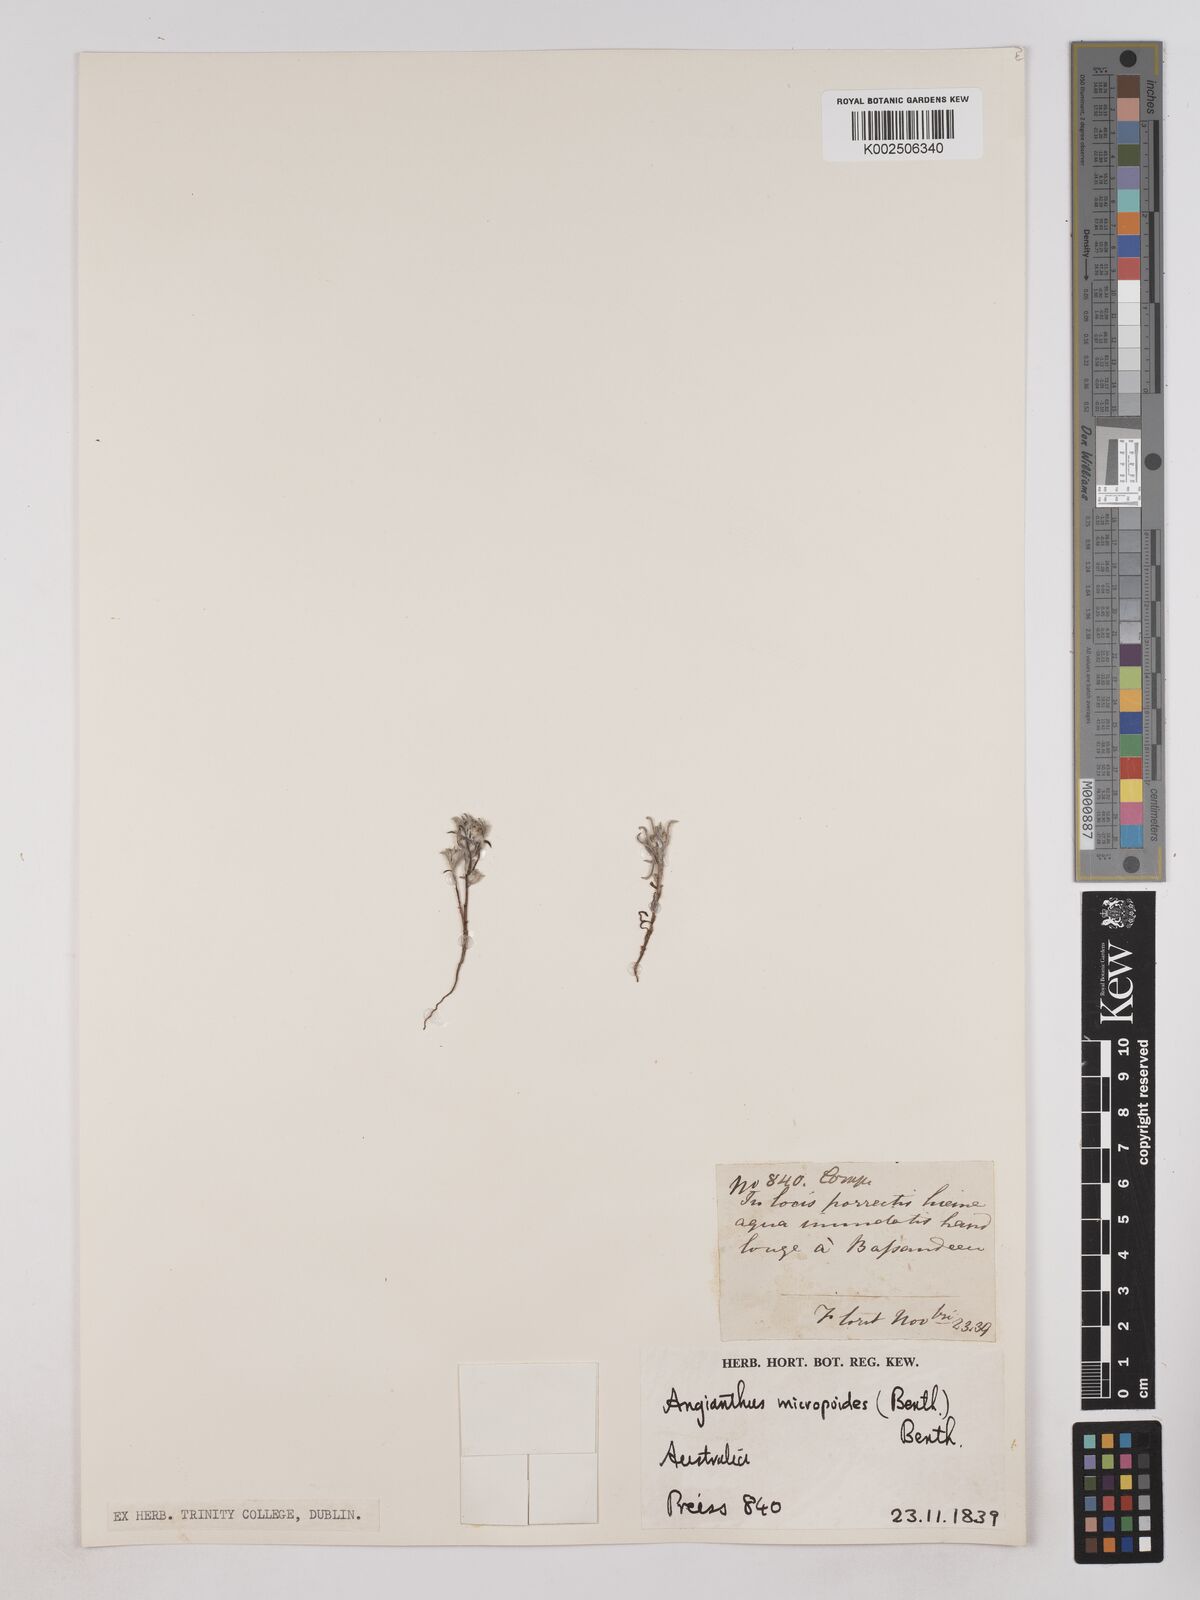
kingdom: Plantae
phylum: Tracheophyta
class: Magnoliopsida
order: Asterales
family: Asteraceae
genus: Angianthus
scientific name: Angianthus micropodioides
